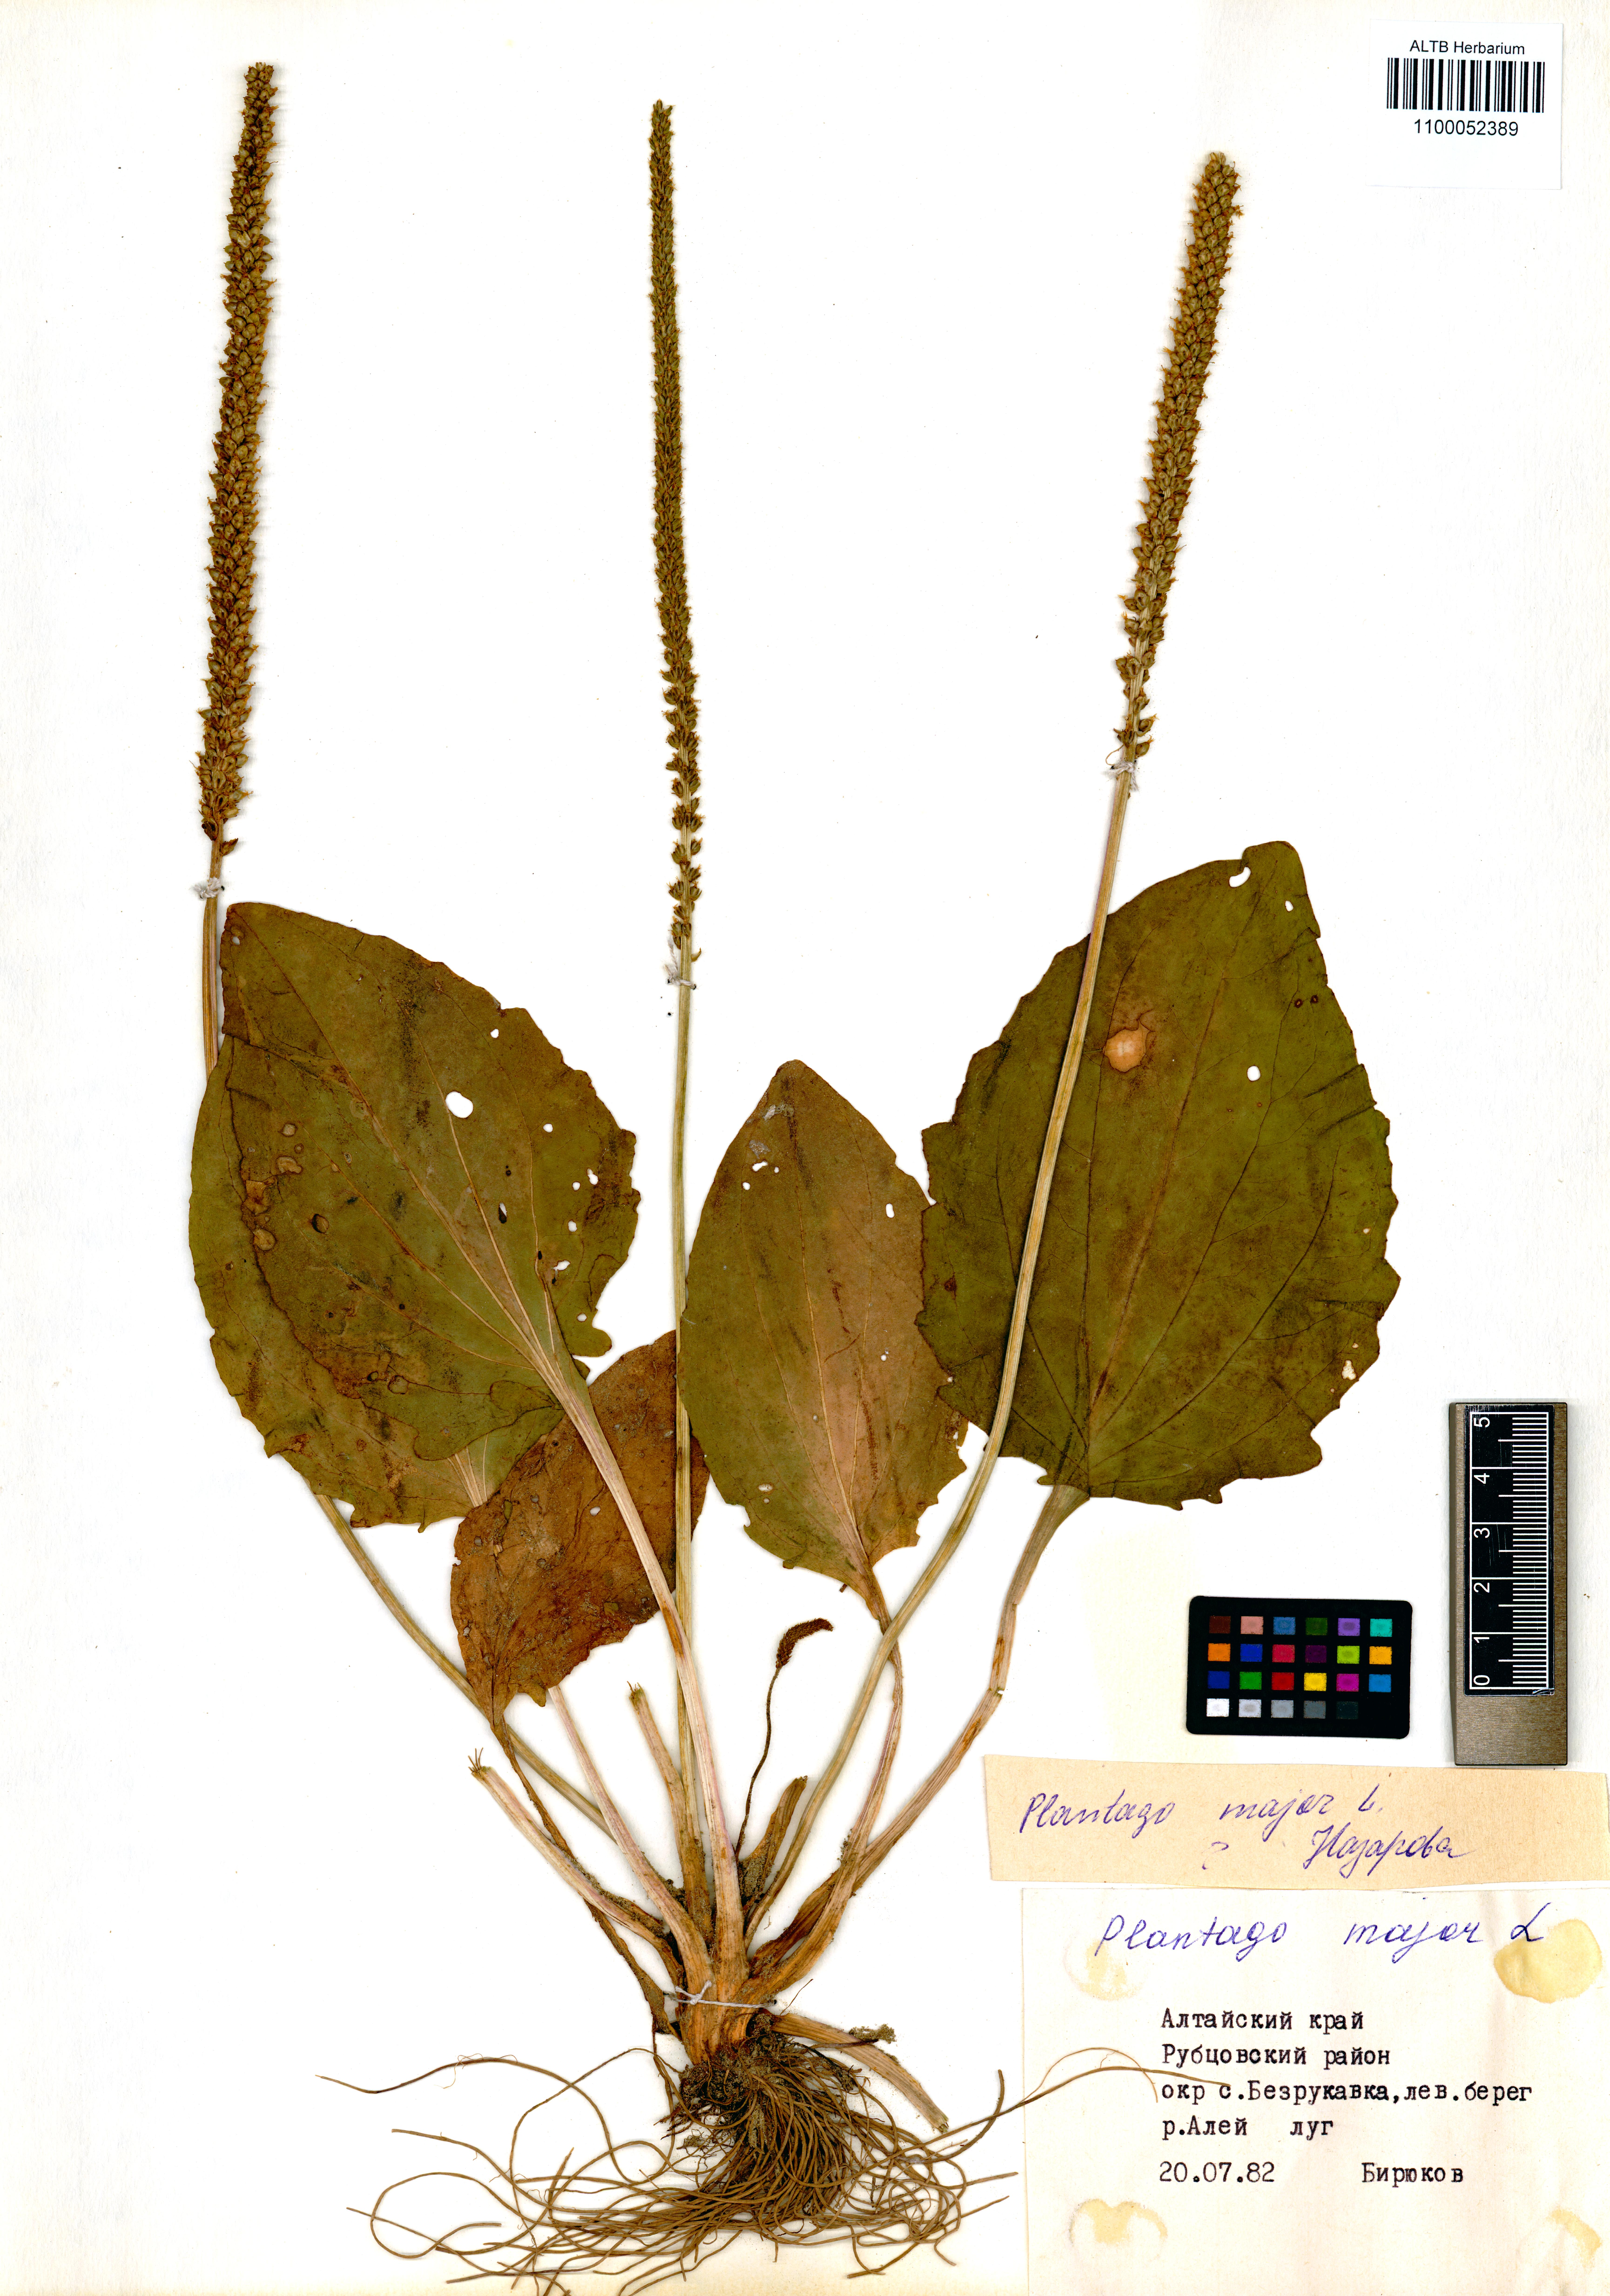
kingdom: Plantae
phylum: Tracheophyta
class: Magnoliopsida
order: Lamiales
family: Plantaginaceae
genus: Plantago
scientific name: Plantago major
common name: Common plantain
